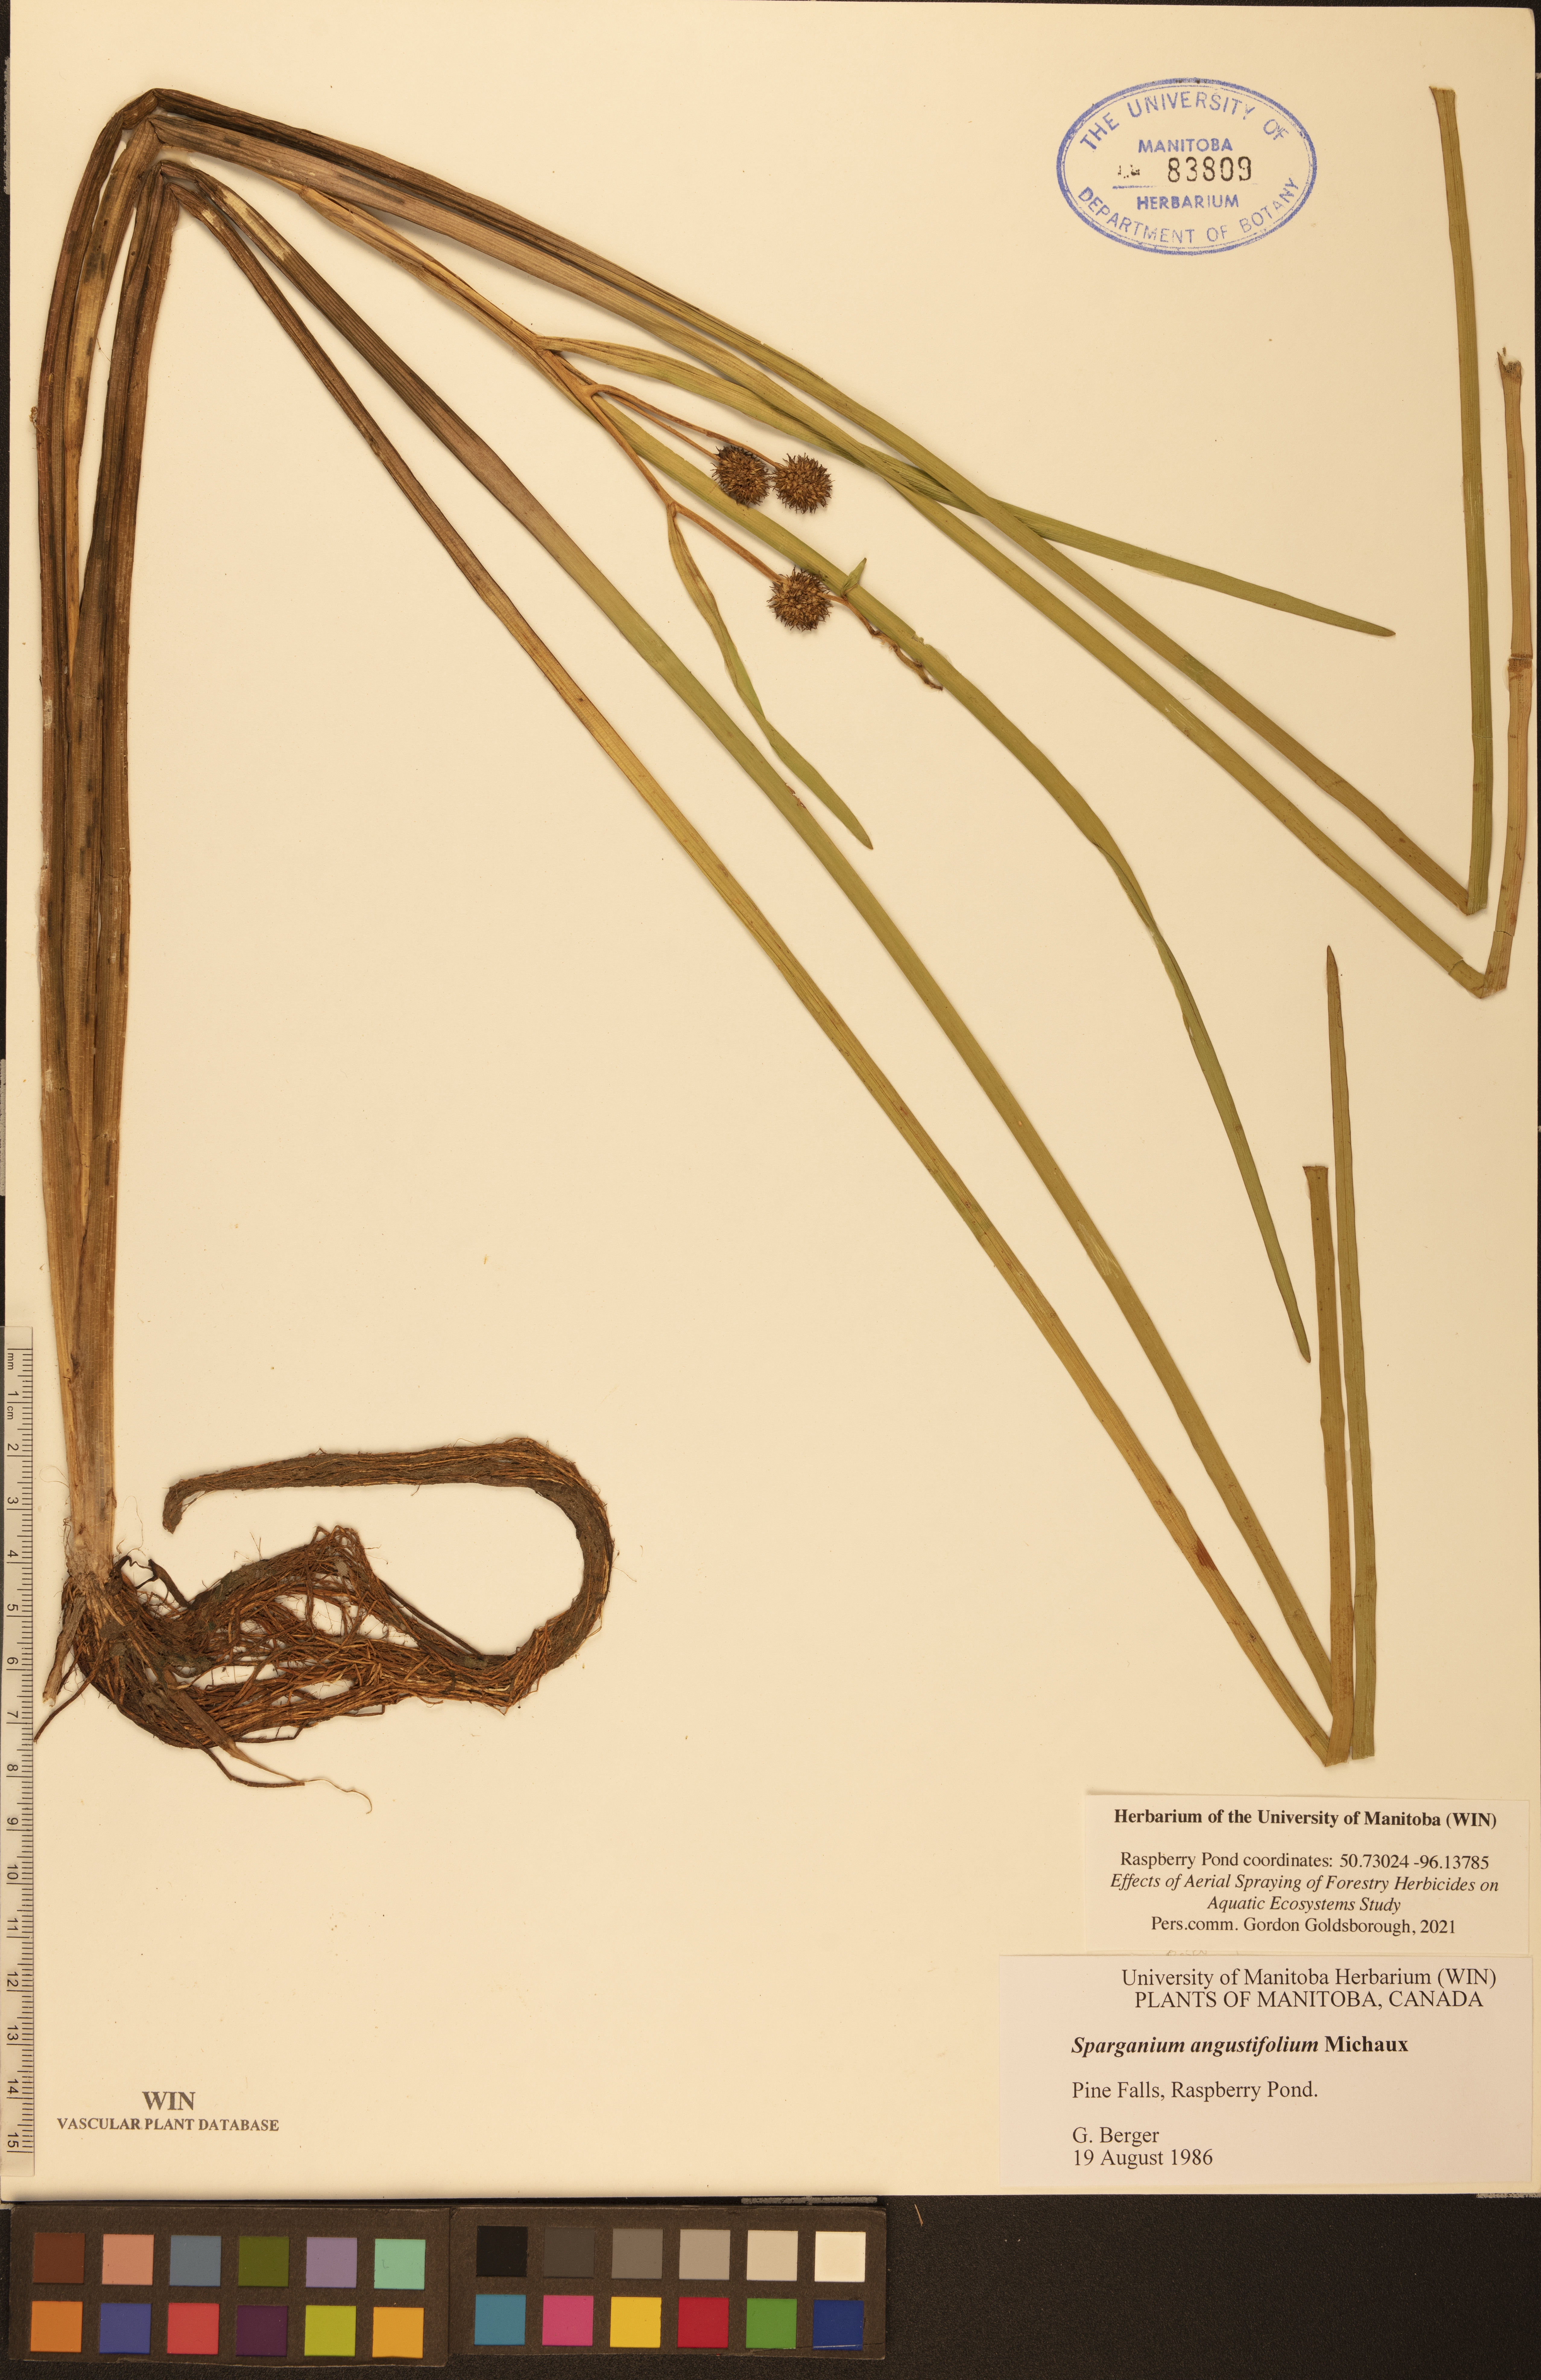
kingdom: Plantae
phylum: Tracheophyta
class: Liliopsida
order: Poales
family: Typhaceae
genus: Sparganium
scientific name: Sparganium angustifolium
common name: Floating bur-reed
